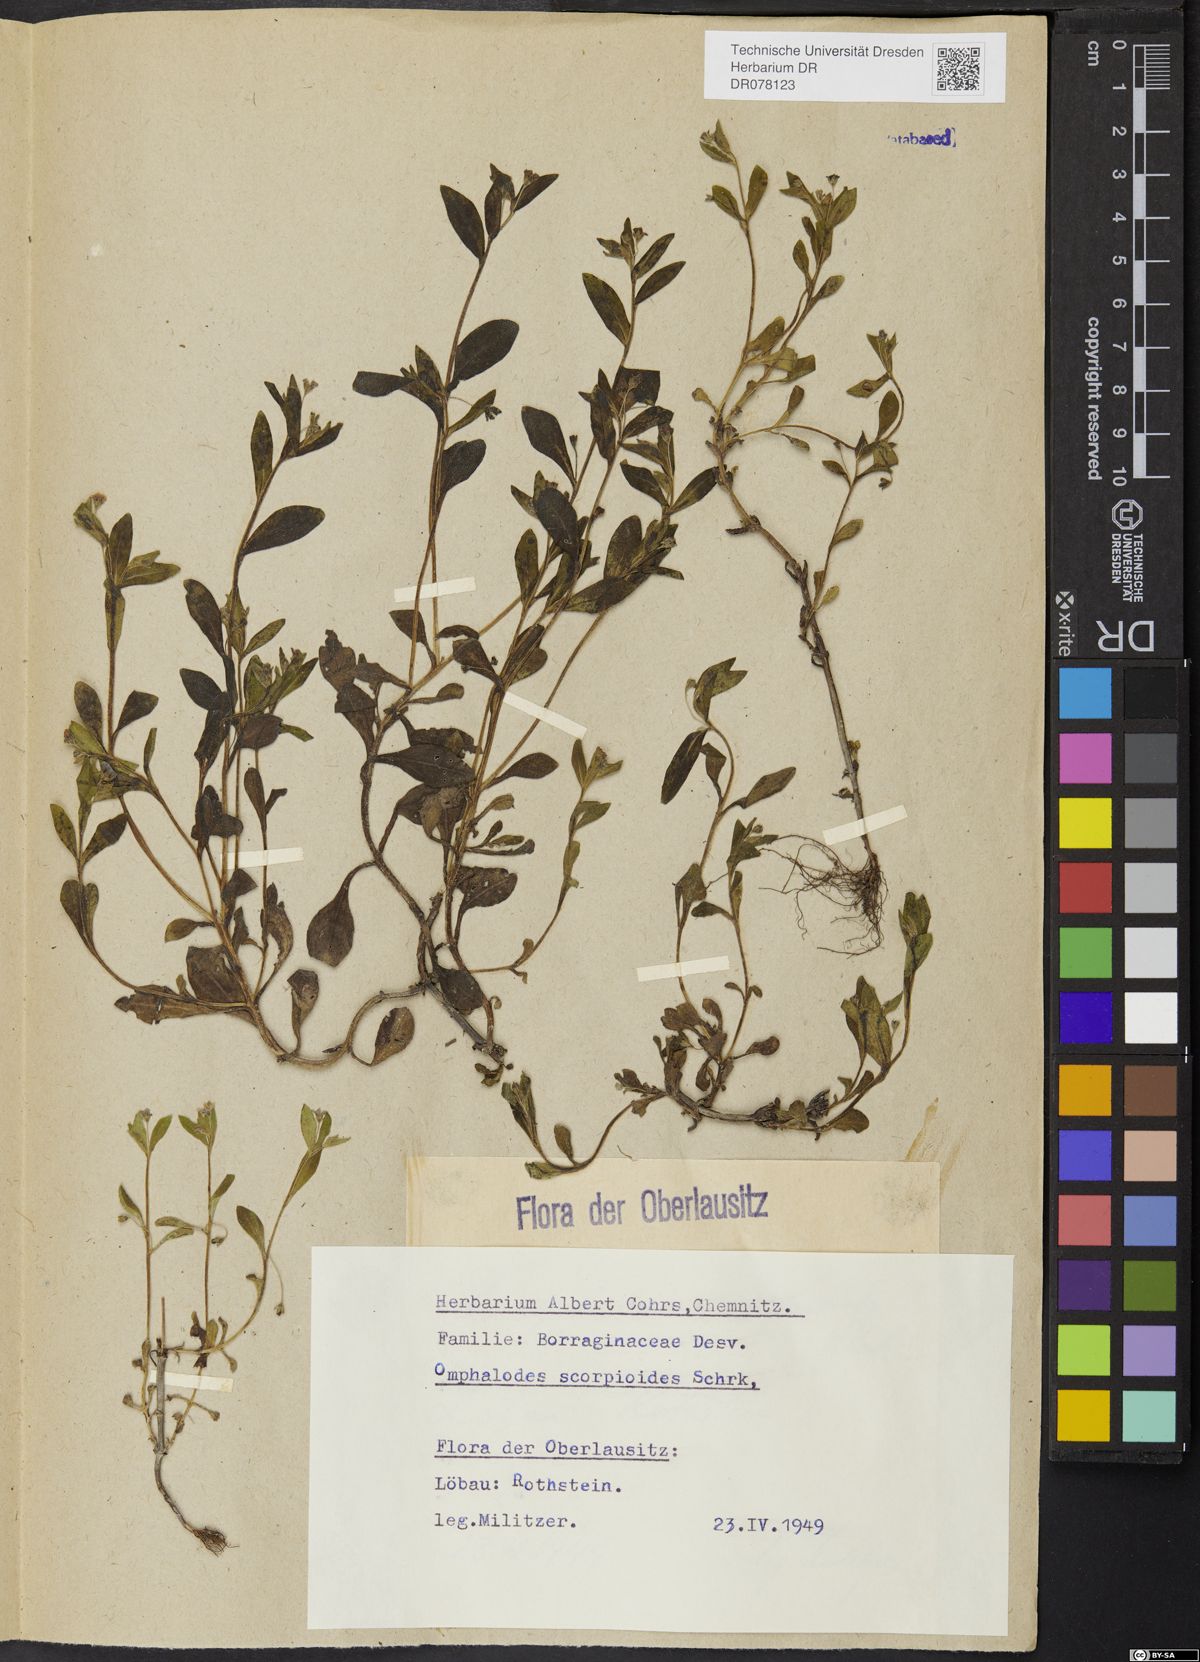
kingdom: Plantae
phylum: Tracheophyta
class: Magnoliopsida
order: Boraginales
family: Boraginaceae
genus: Memoremea
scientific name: Memoremea scorpioides
